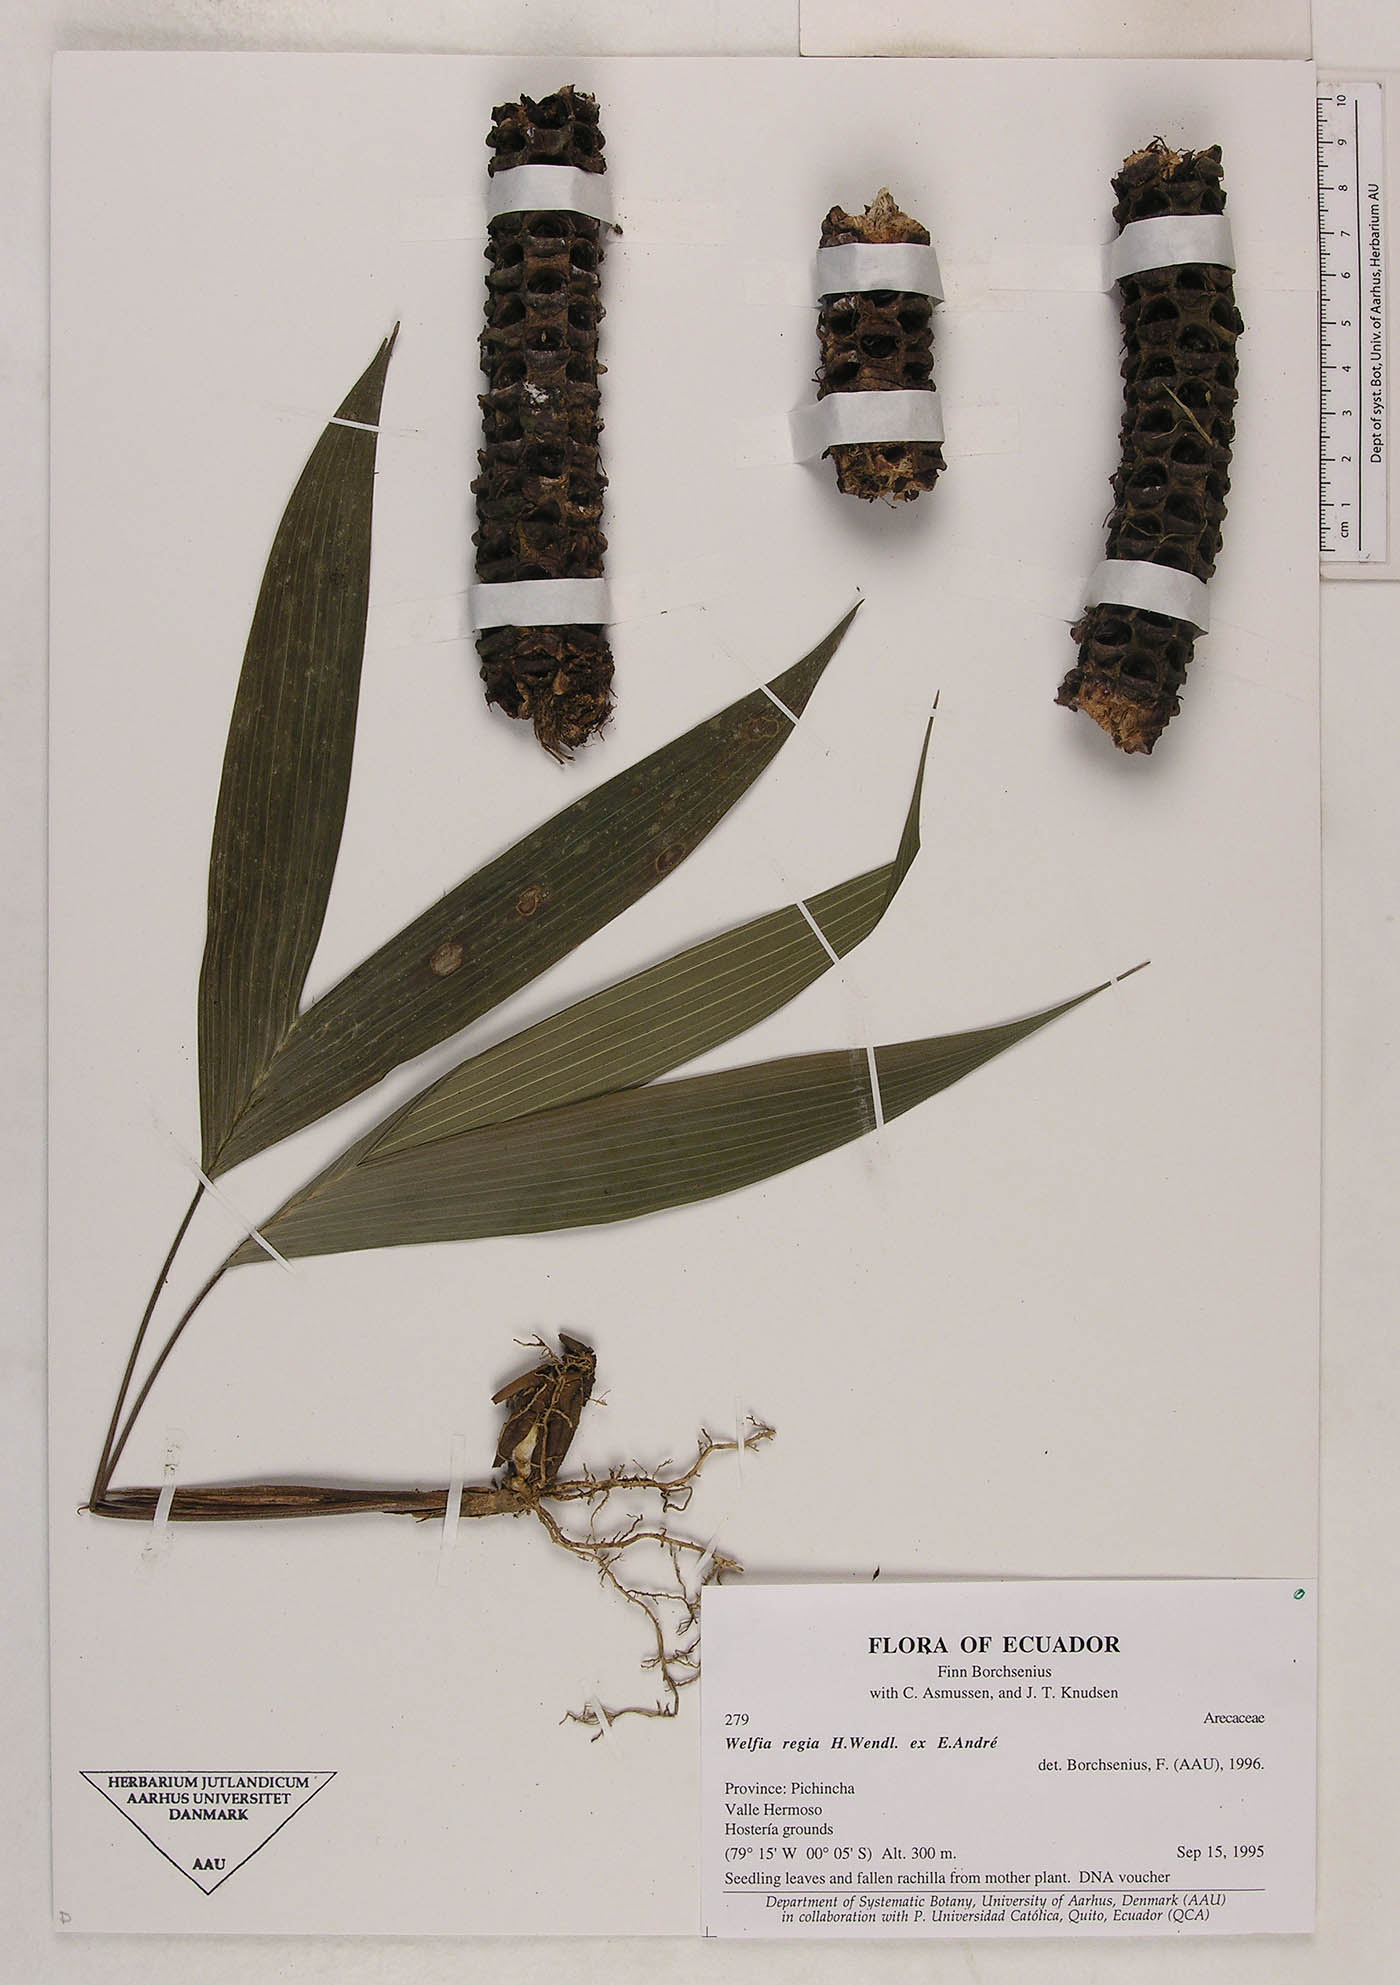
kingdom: Plantae
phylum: Tracheophyta
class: Liliopsida
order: Arecales
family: Arecaceae
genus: Welfia
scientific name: Welfia regia
